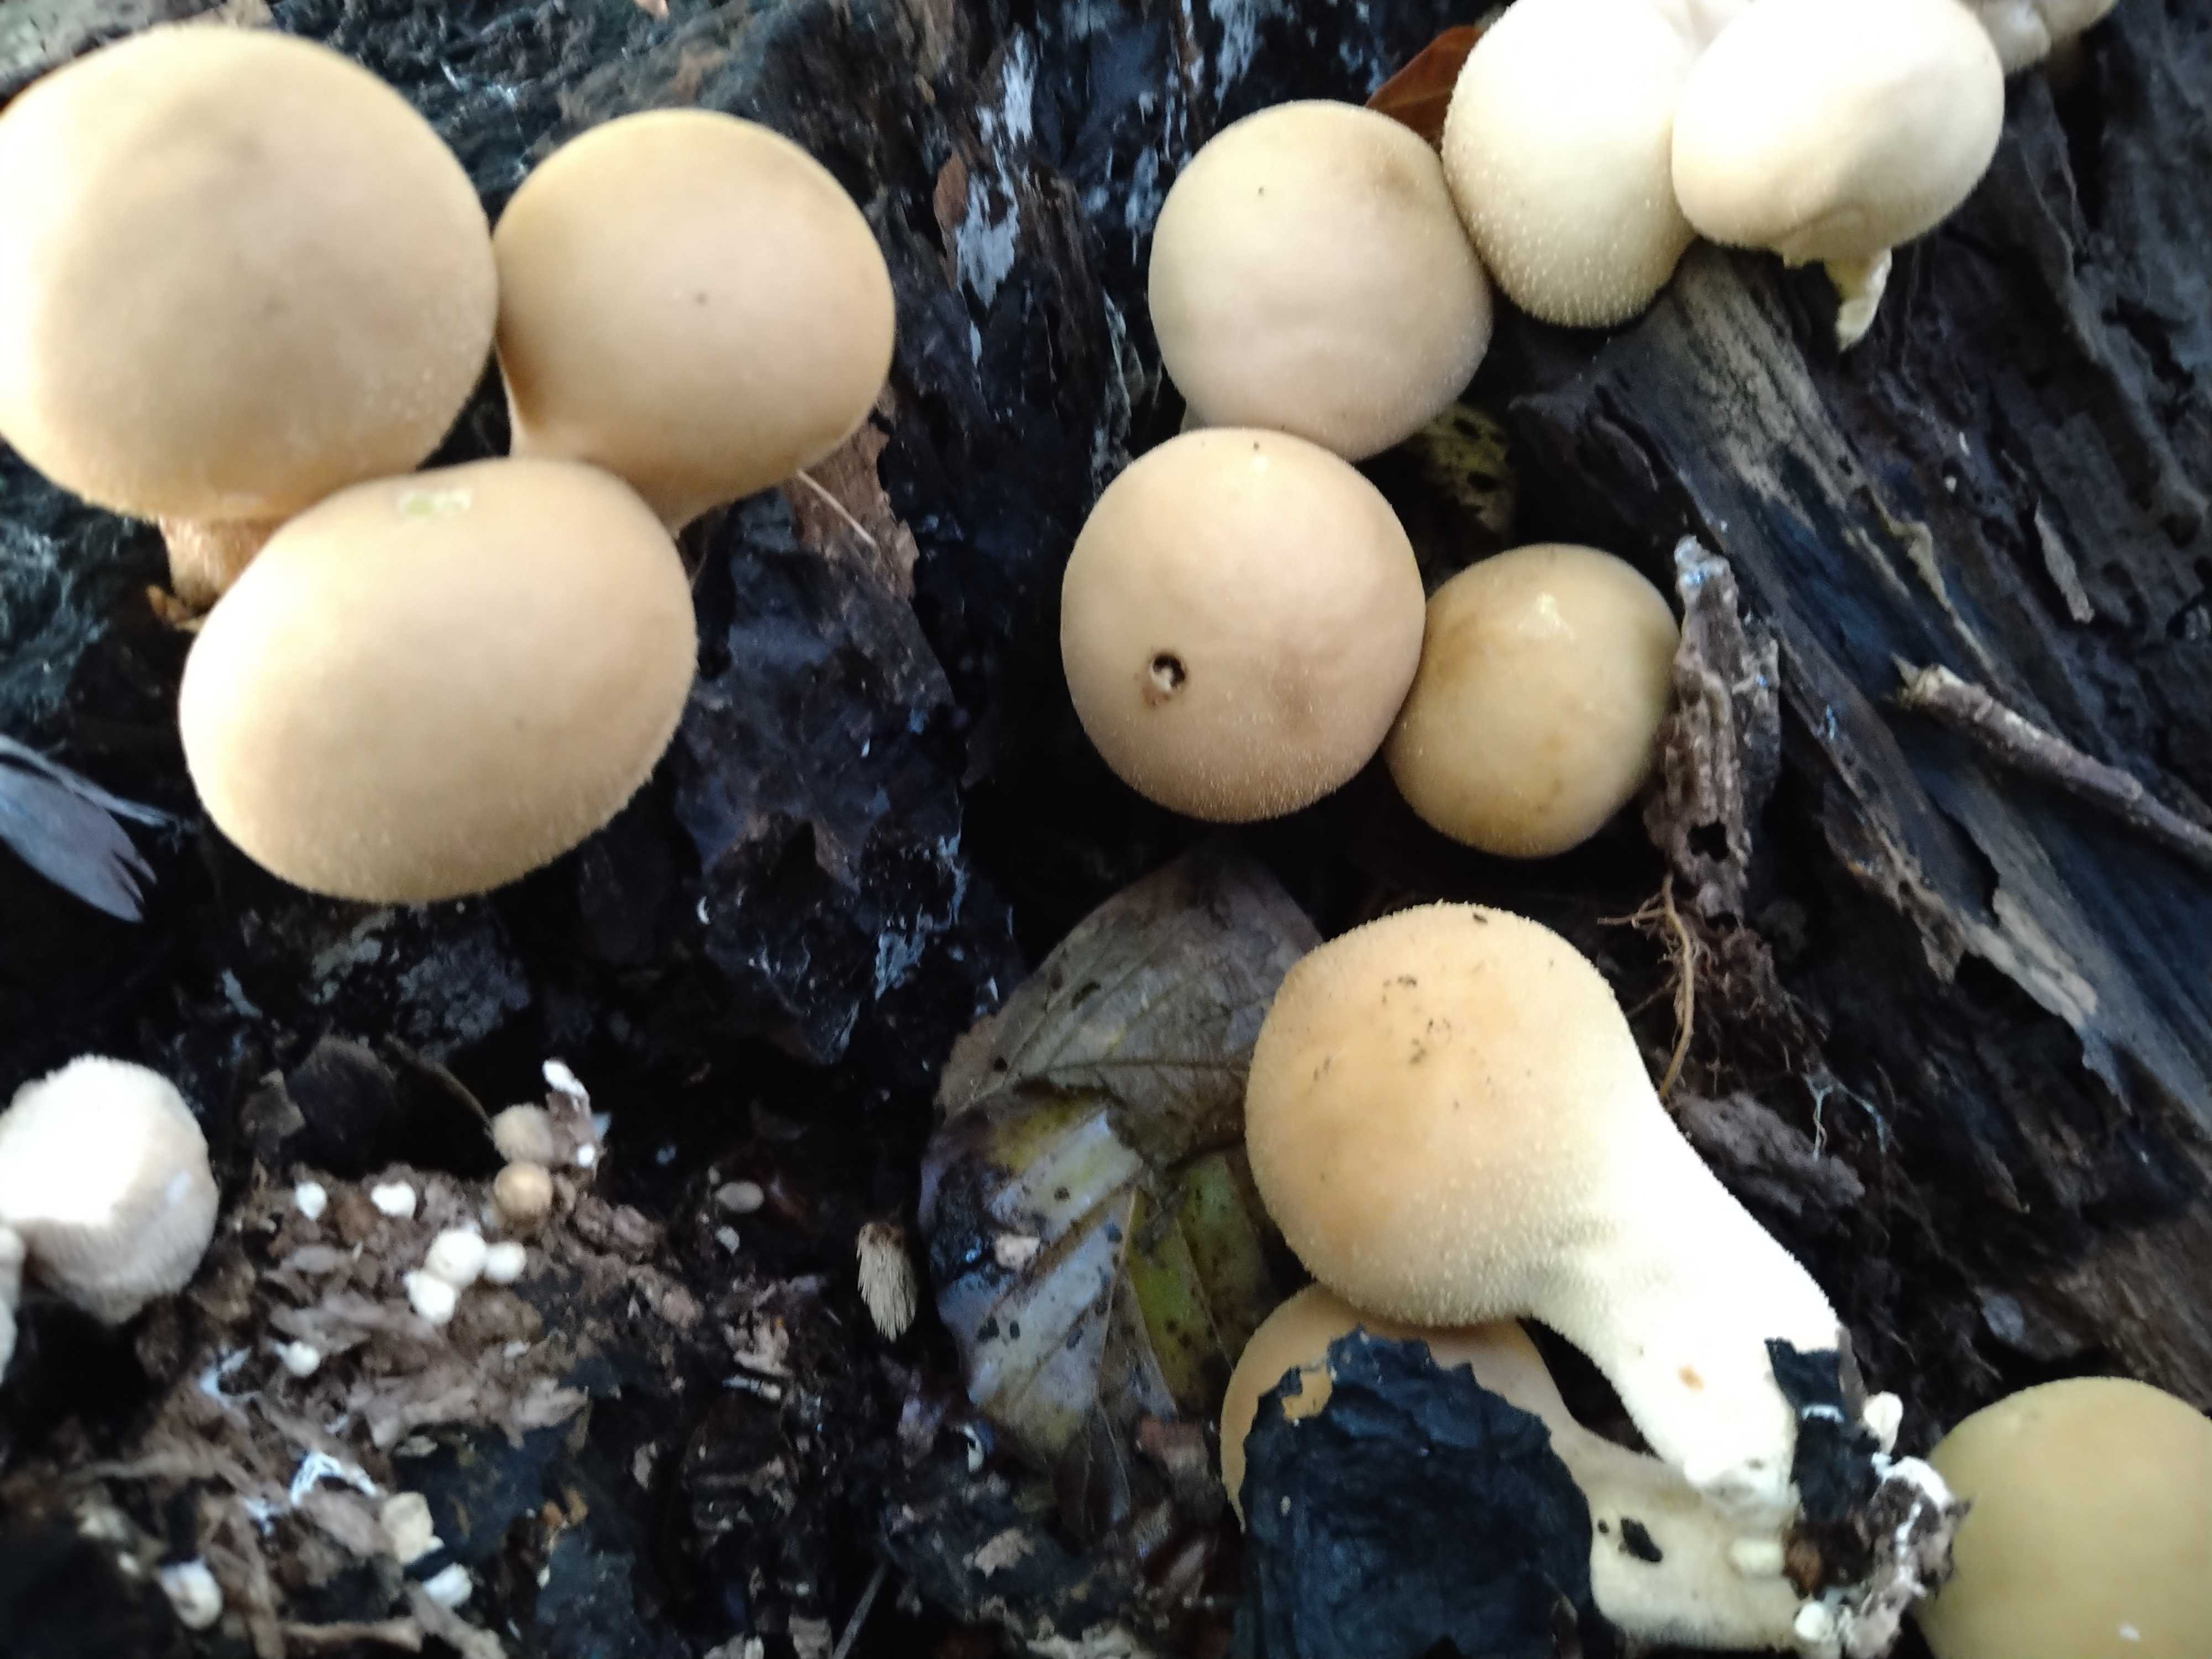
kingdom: Fungi
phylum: Basidiomycota
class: Agaricomycetes
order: Agaricales
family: Lycoperdaceae
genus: Apioperdon
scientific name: Apioperdon pyriforme
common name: pære-støvbold
